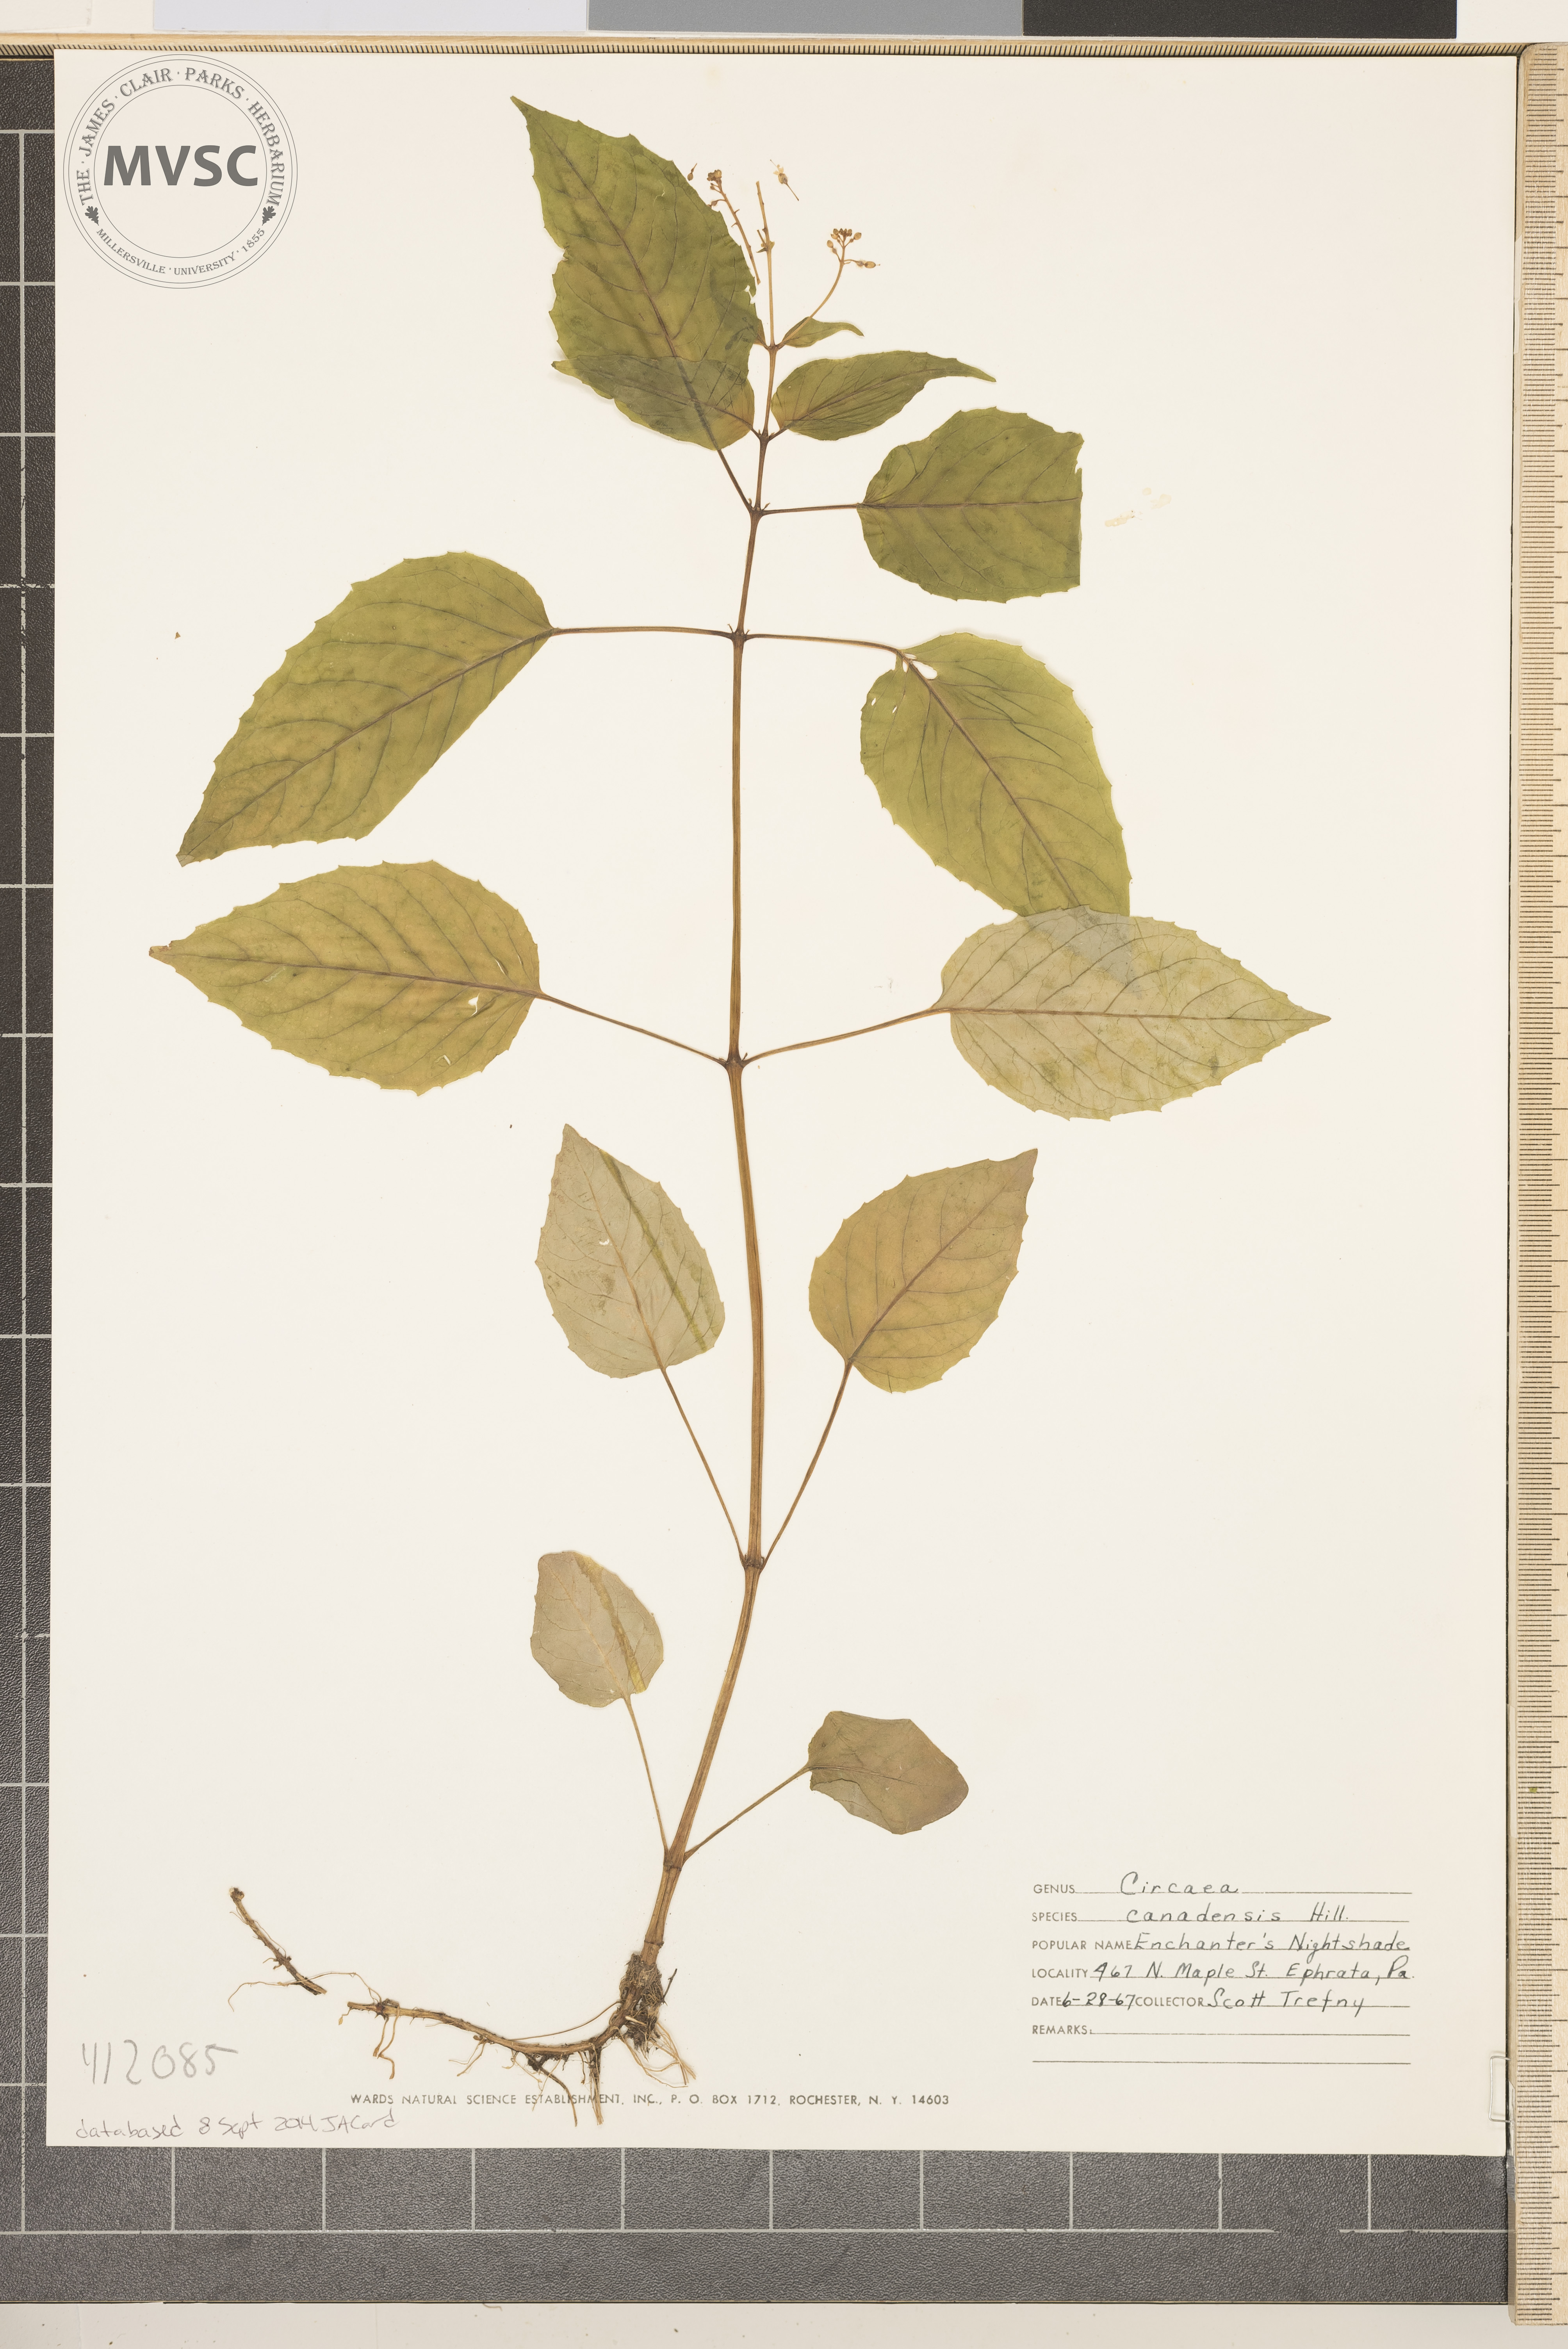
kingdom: Plantae
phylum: Tracheophyta
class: Magnoliopsida
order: Myrtales
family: Onagraceae
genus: Circaea
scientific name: Circaea canadensis
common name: Enchanter's Nightshade
